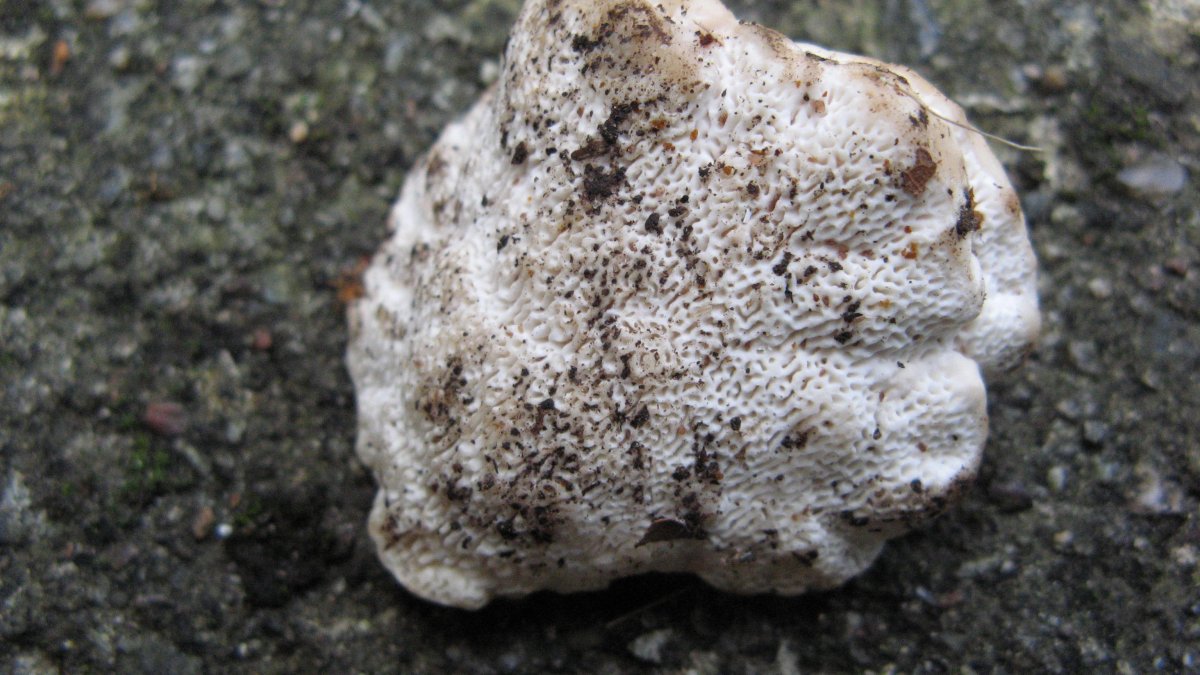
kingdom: Fungi
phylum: Basidiomycota
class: Agaricomycetes
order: Polyporales
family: Polyporaceae
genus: Trametes
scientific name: Trametes gibbosa
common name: puklet læderporesvamp
